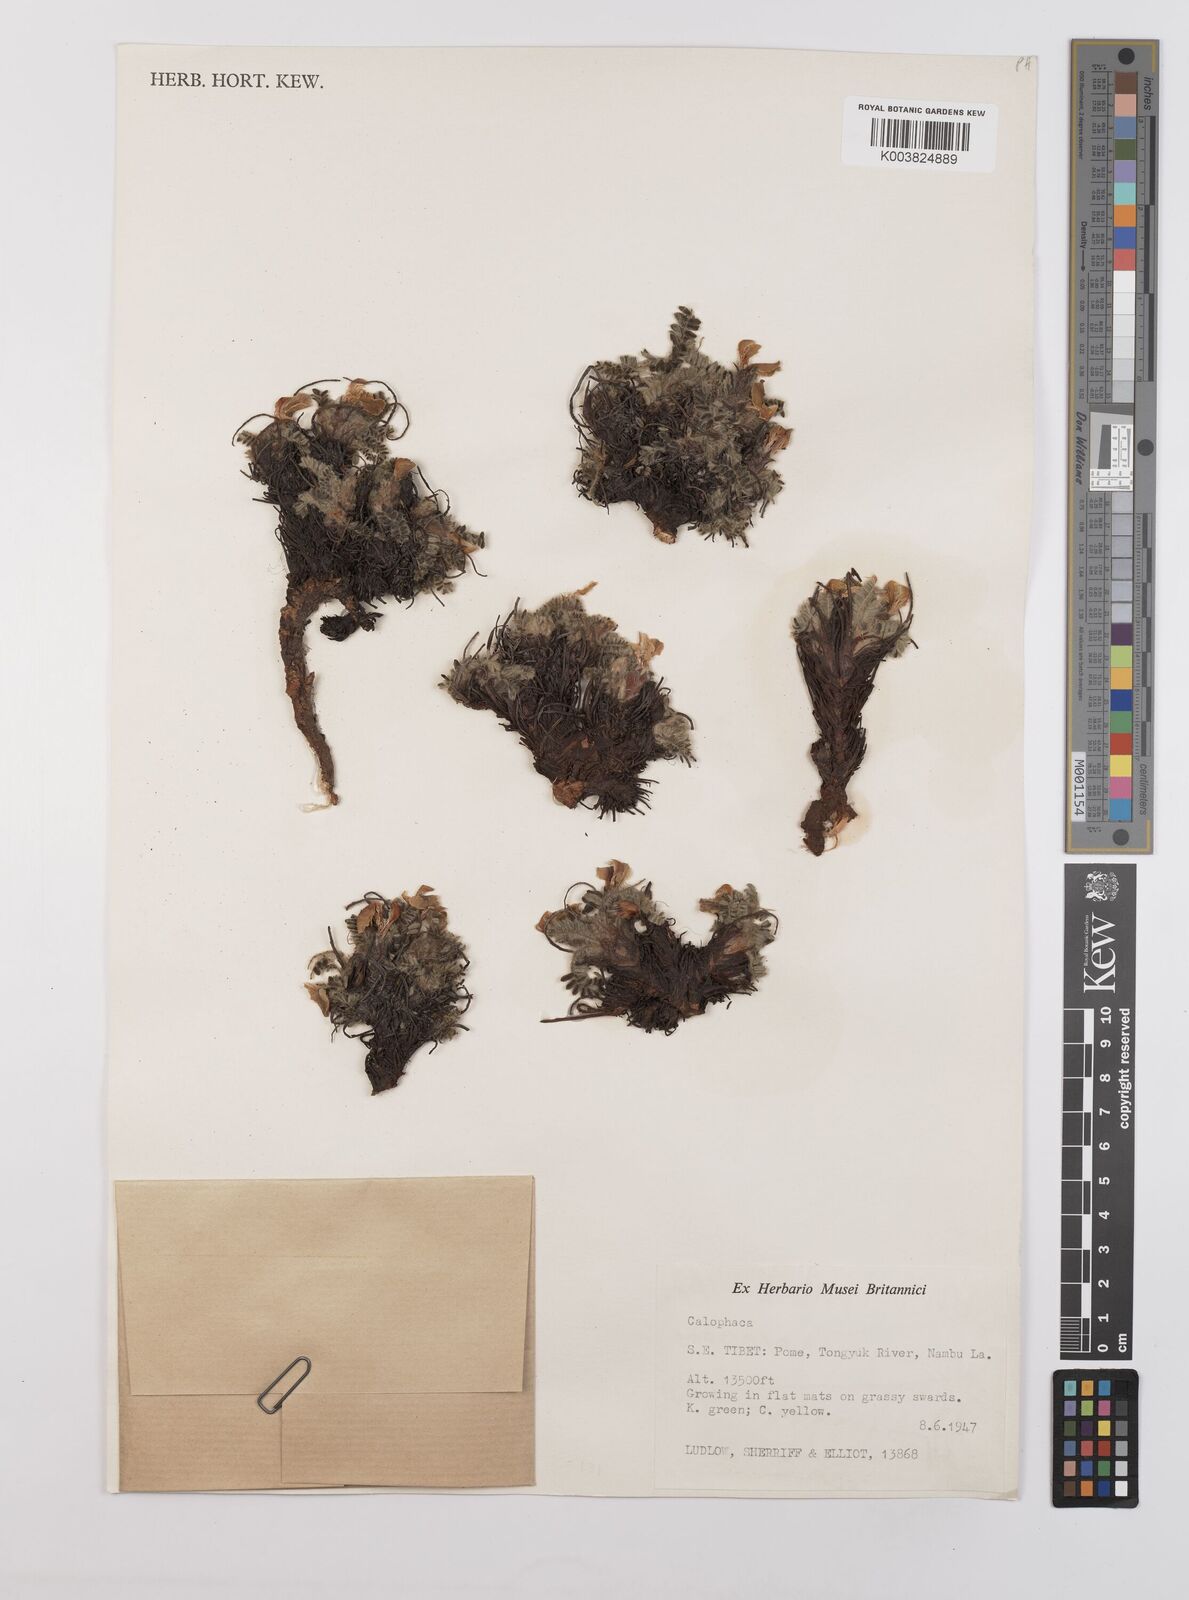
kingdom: Plantae
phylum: Tracheophyta
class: Magnoliopsida
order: Fabales
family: Fabaceae
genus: Chesneya
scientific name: Chesneya
